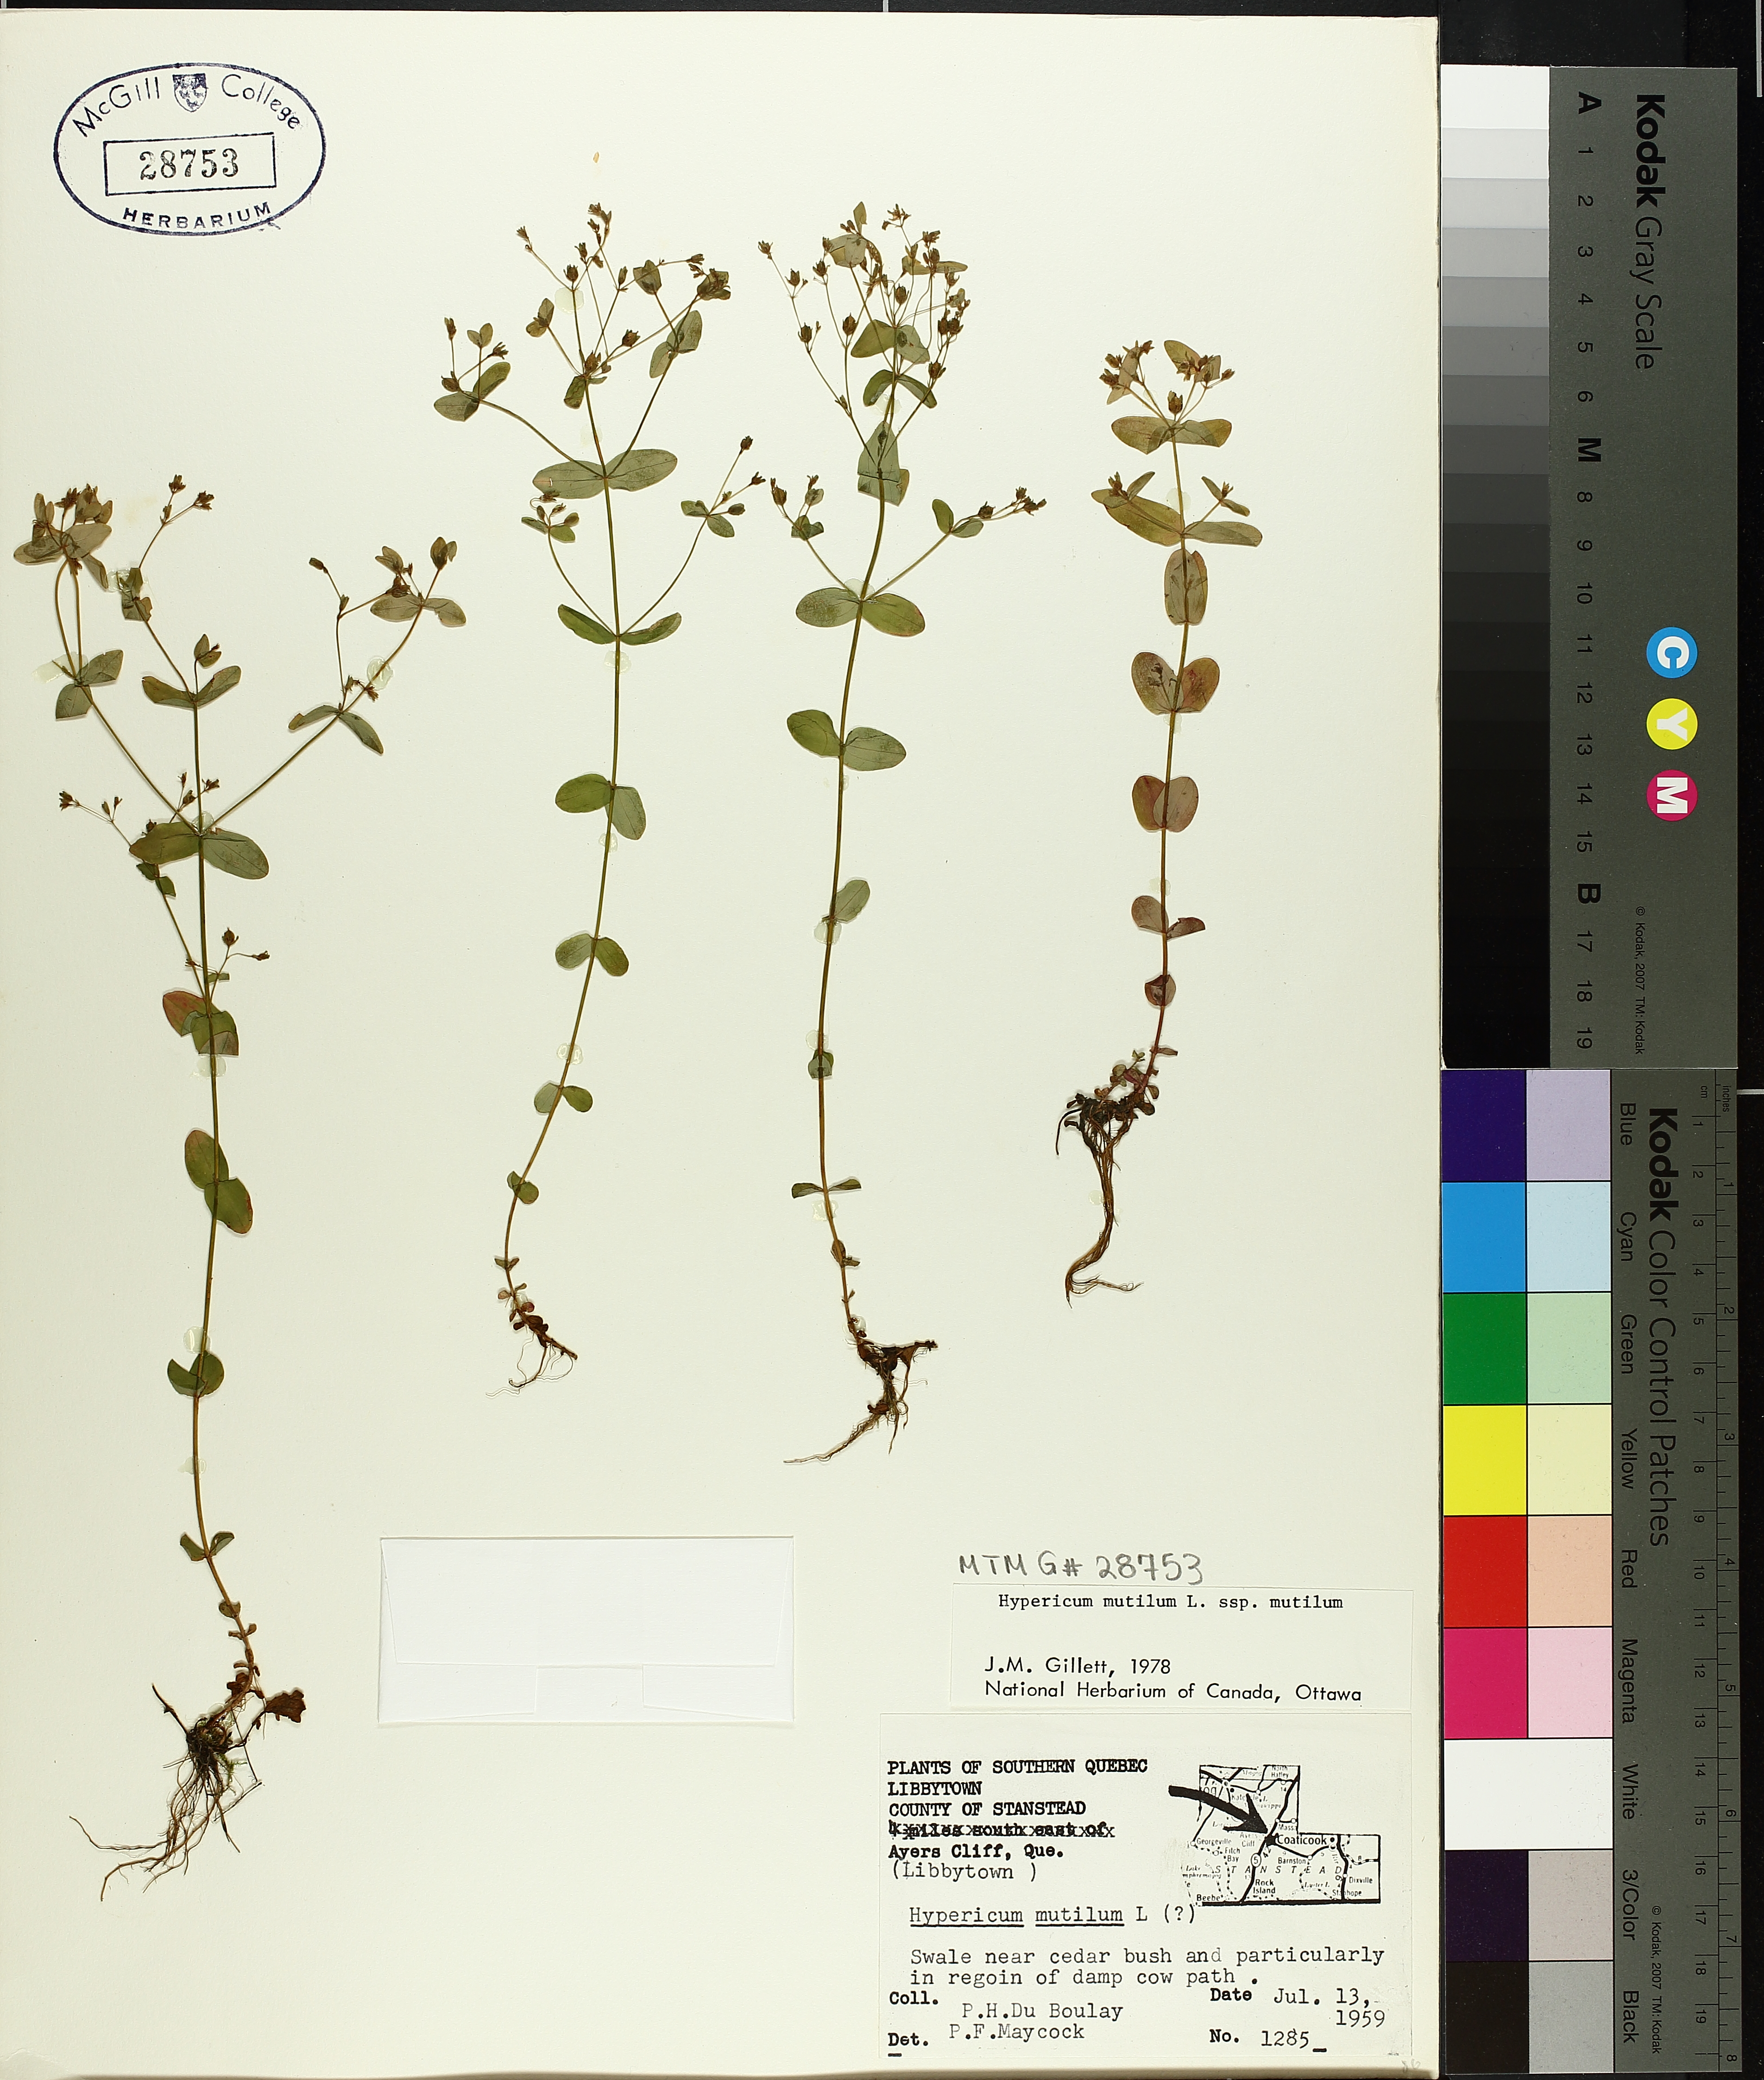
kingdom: Plantae
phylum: Tracheophyta
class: Magnoliopsida
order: Malpighiales
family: Hypericaceae
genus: Hypericum
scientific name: Hypericum mutilum
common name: Dwarf st. john's-wort
